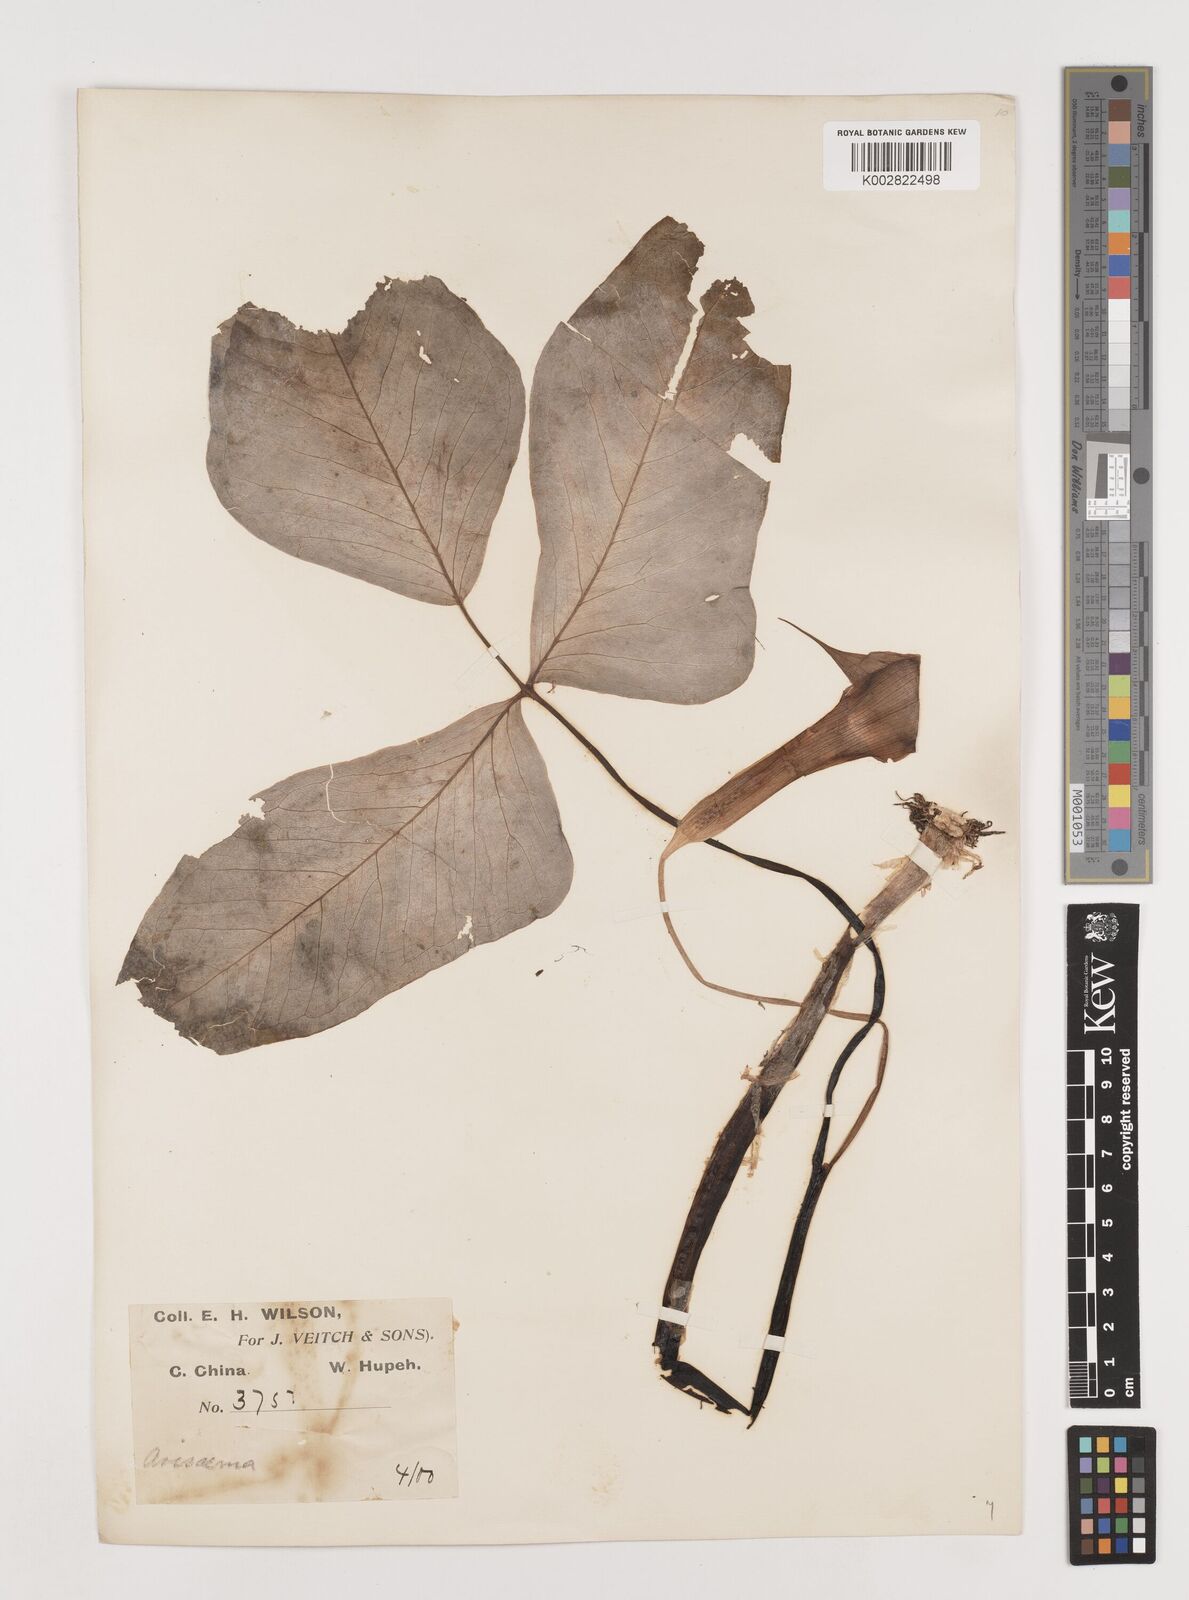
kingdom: Plantae
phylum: Tracheophyta
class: Liliopsida
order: Alismatales
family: Araceae
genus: Arisaema
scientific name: Arisaema lobatum
